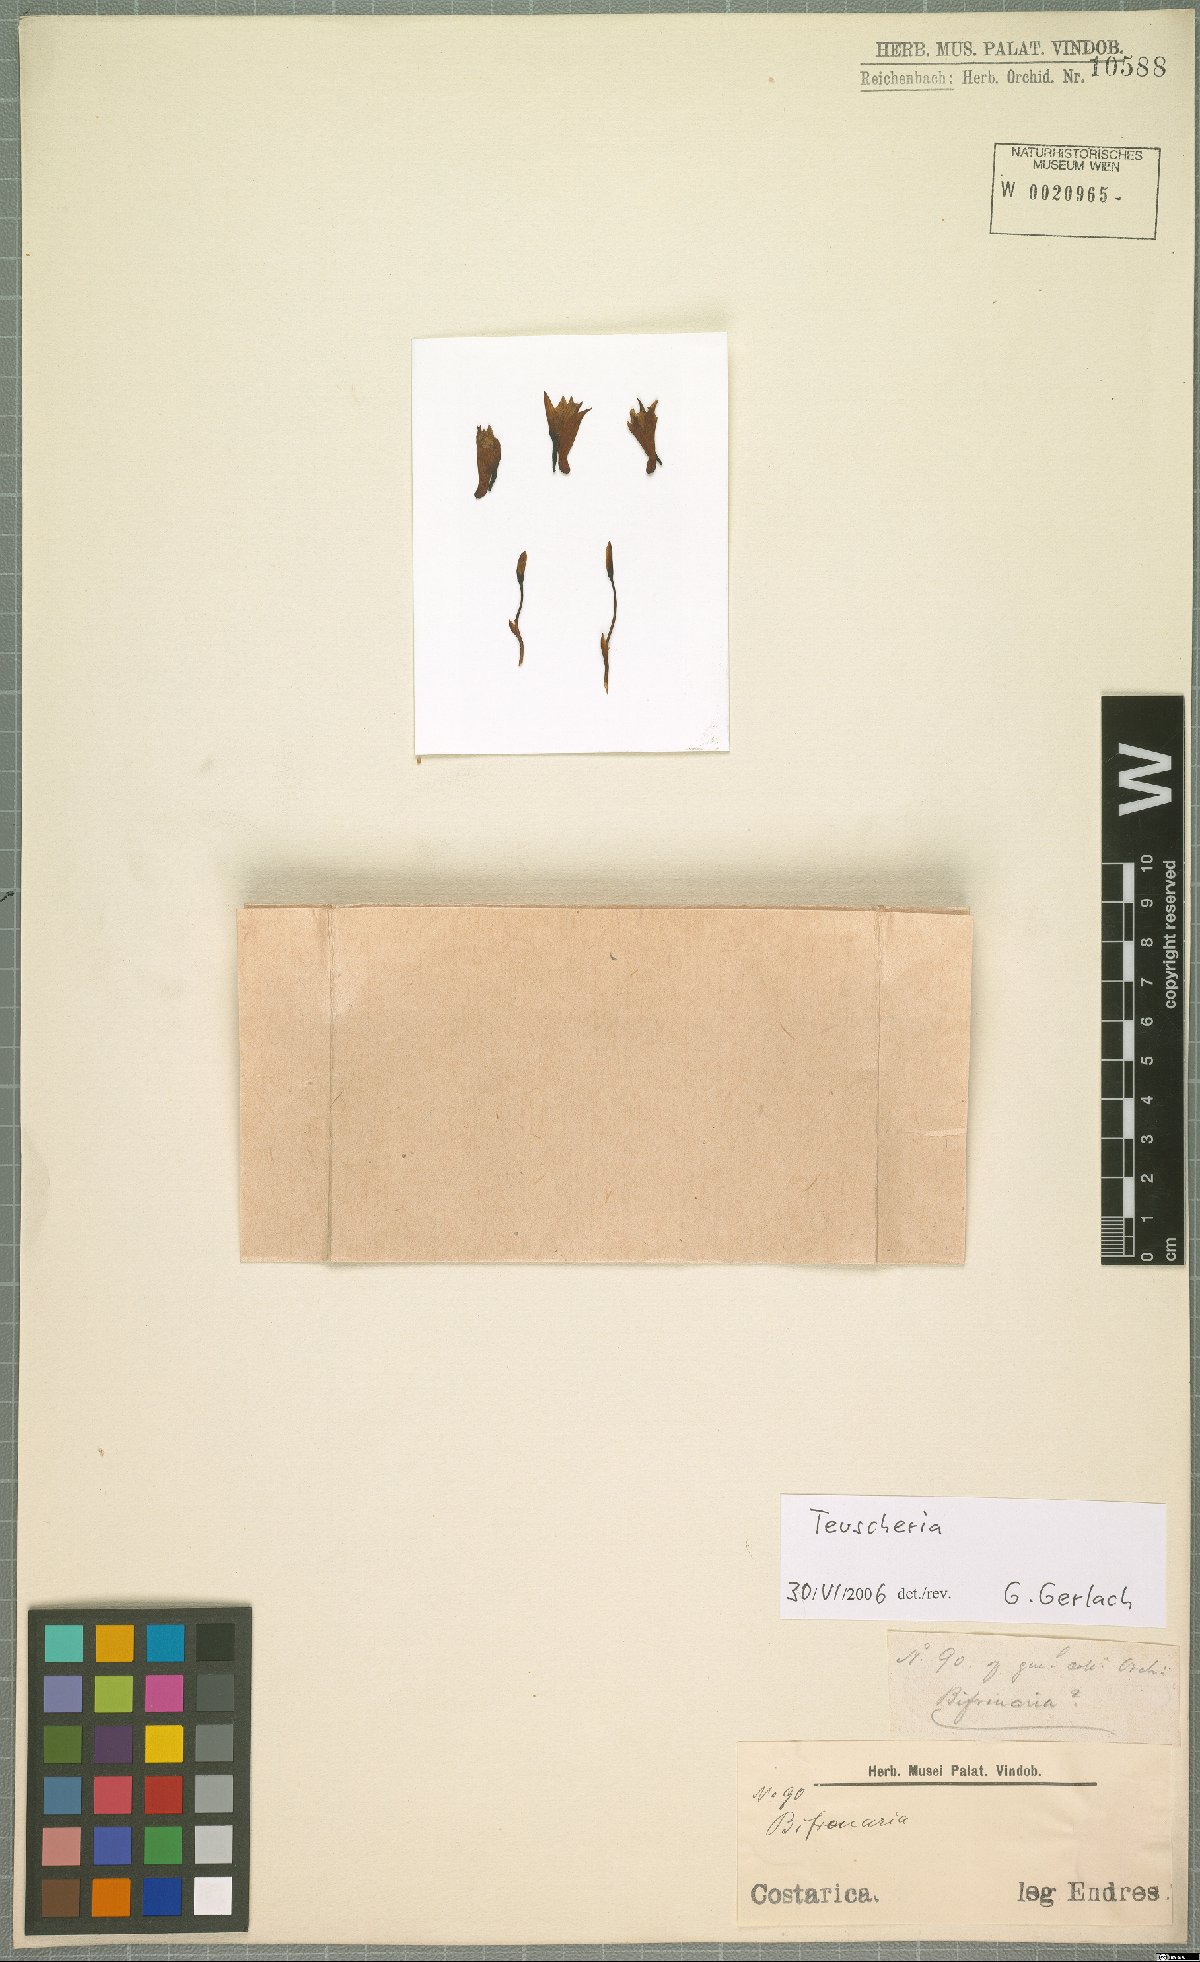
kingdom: Plantae
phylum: Tracheophyta
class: Liliopsida
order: Asparagales
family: Orchidaceae
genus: Teuscheria
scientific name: Teuscheria
